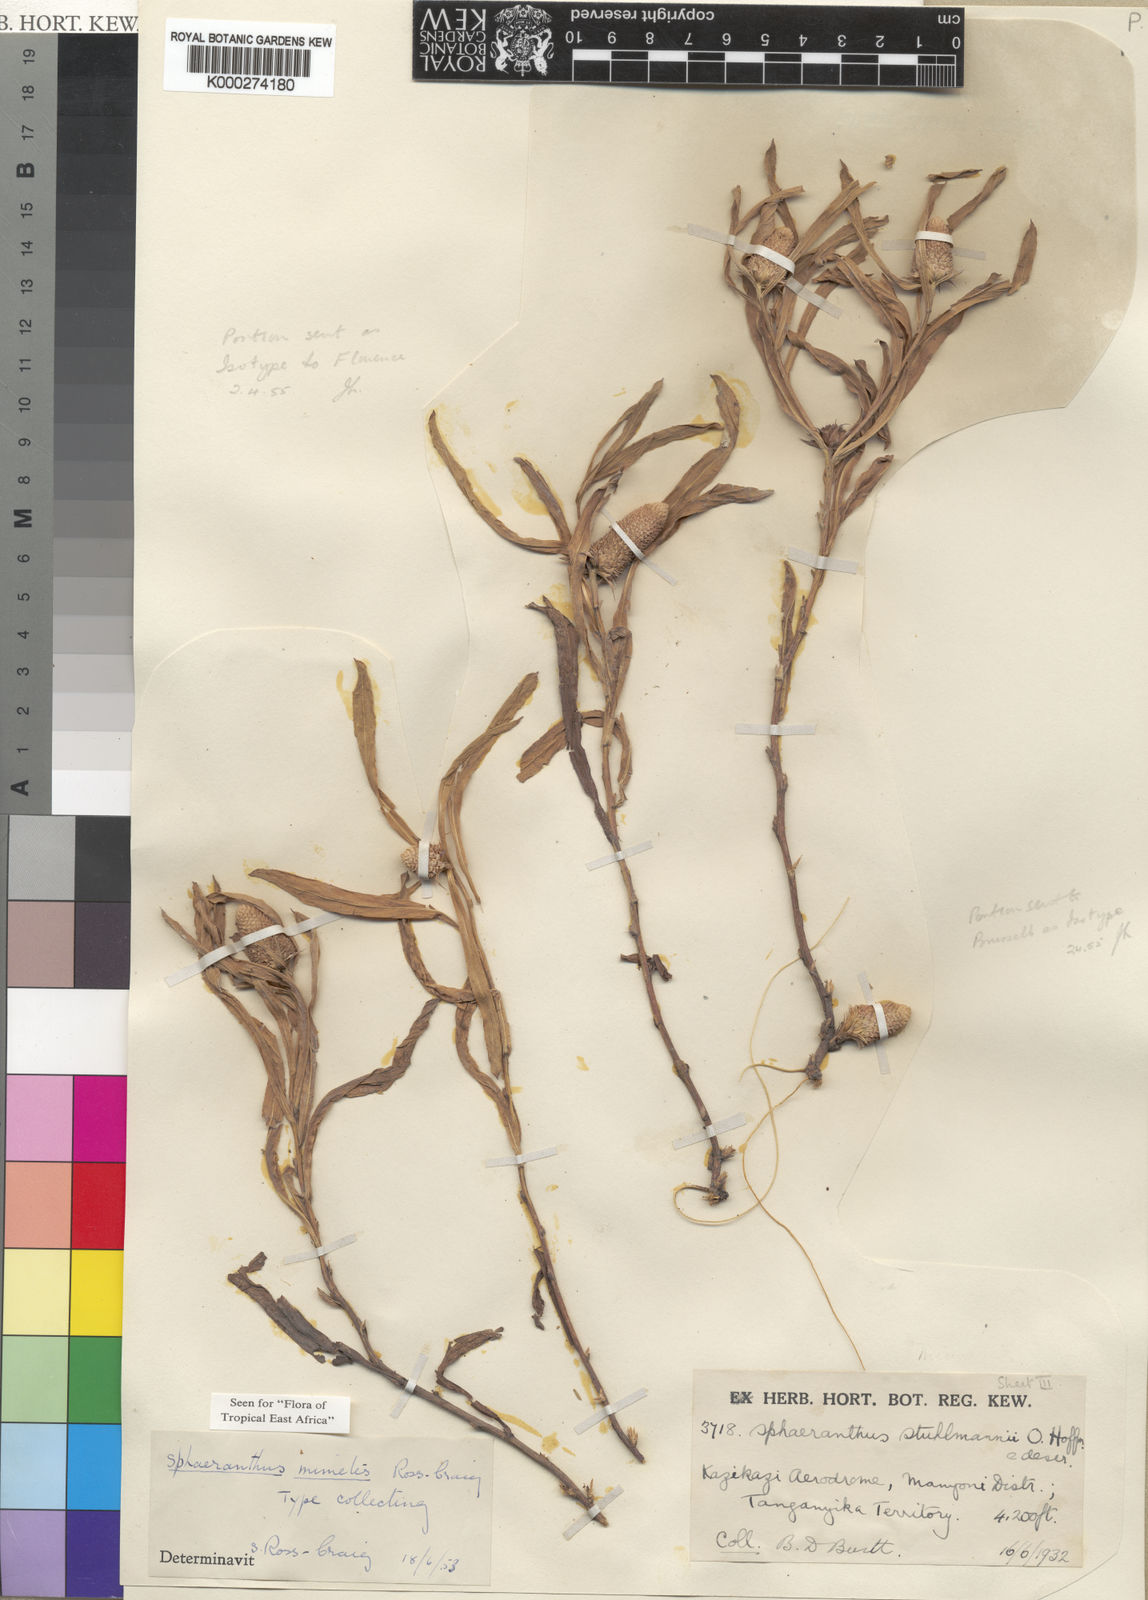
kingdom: Plantae
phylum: Tracheophyta
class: Magnoliopsida
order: Asterales
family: Asteraceae
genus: Sphaeranthus
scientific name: Sphaeranthus mimetes
